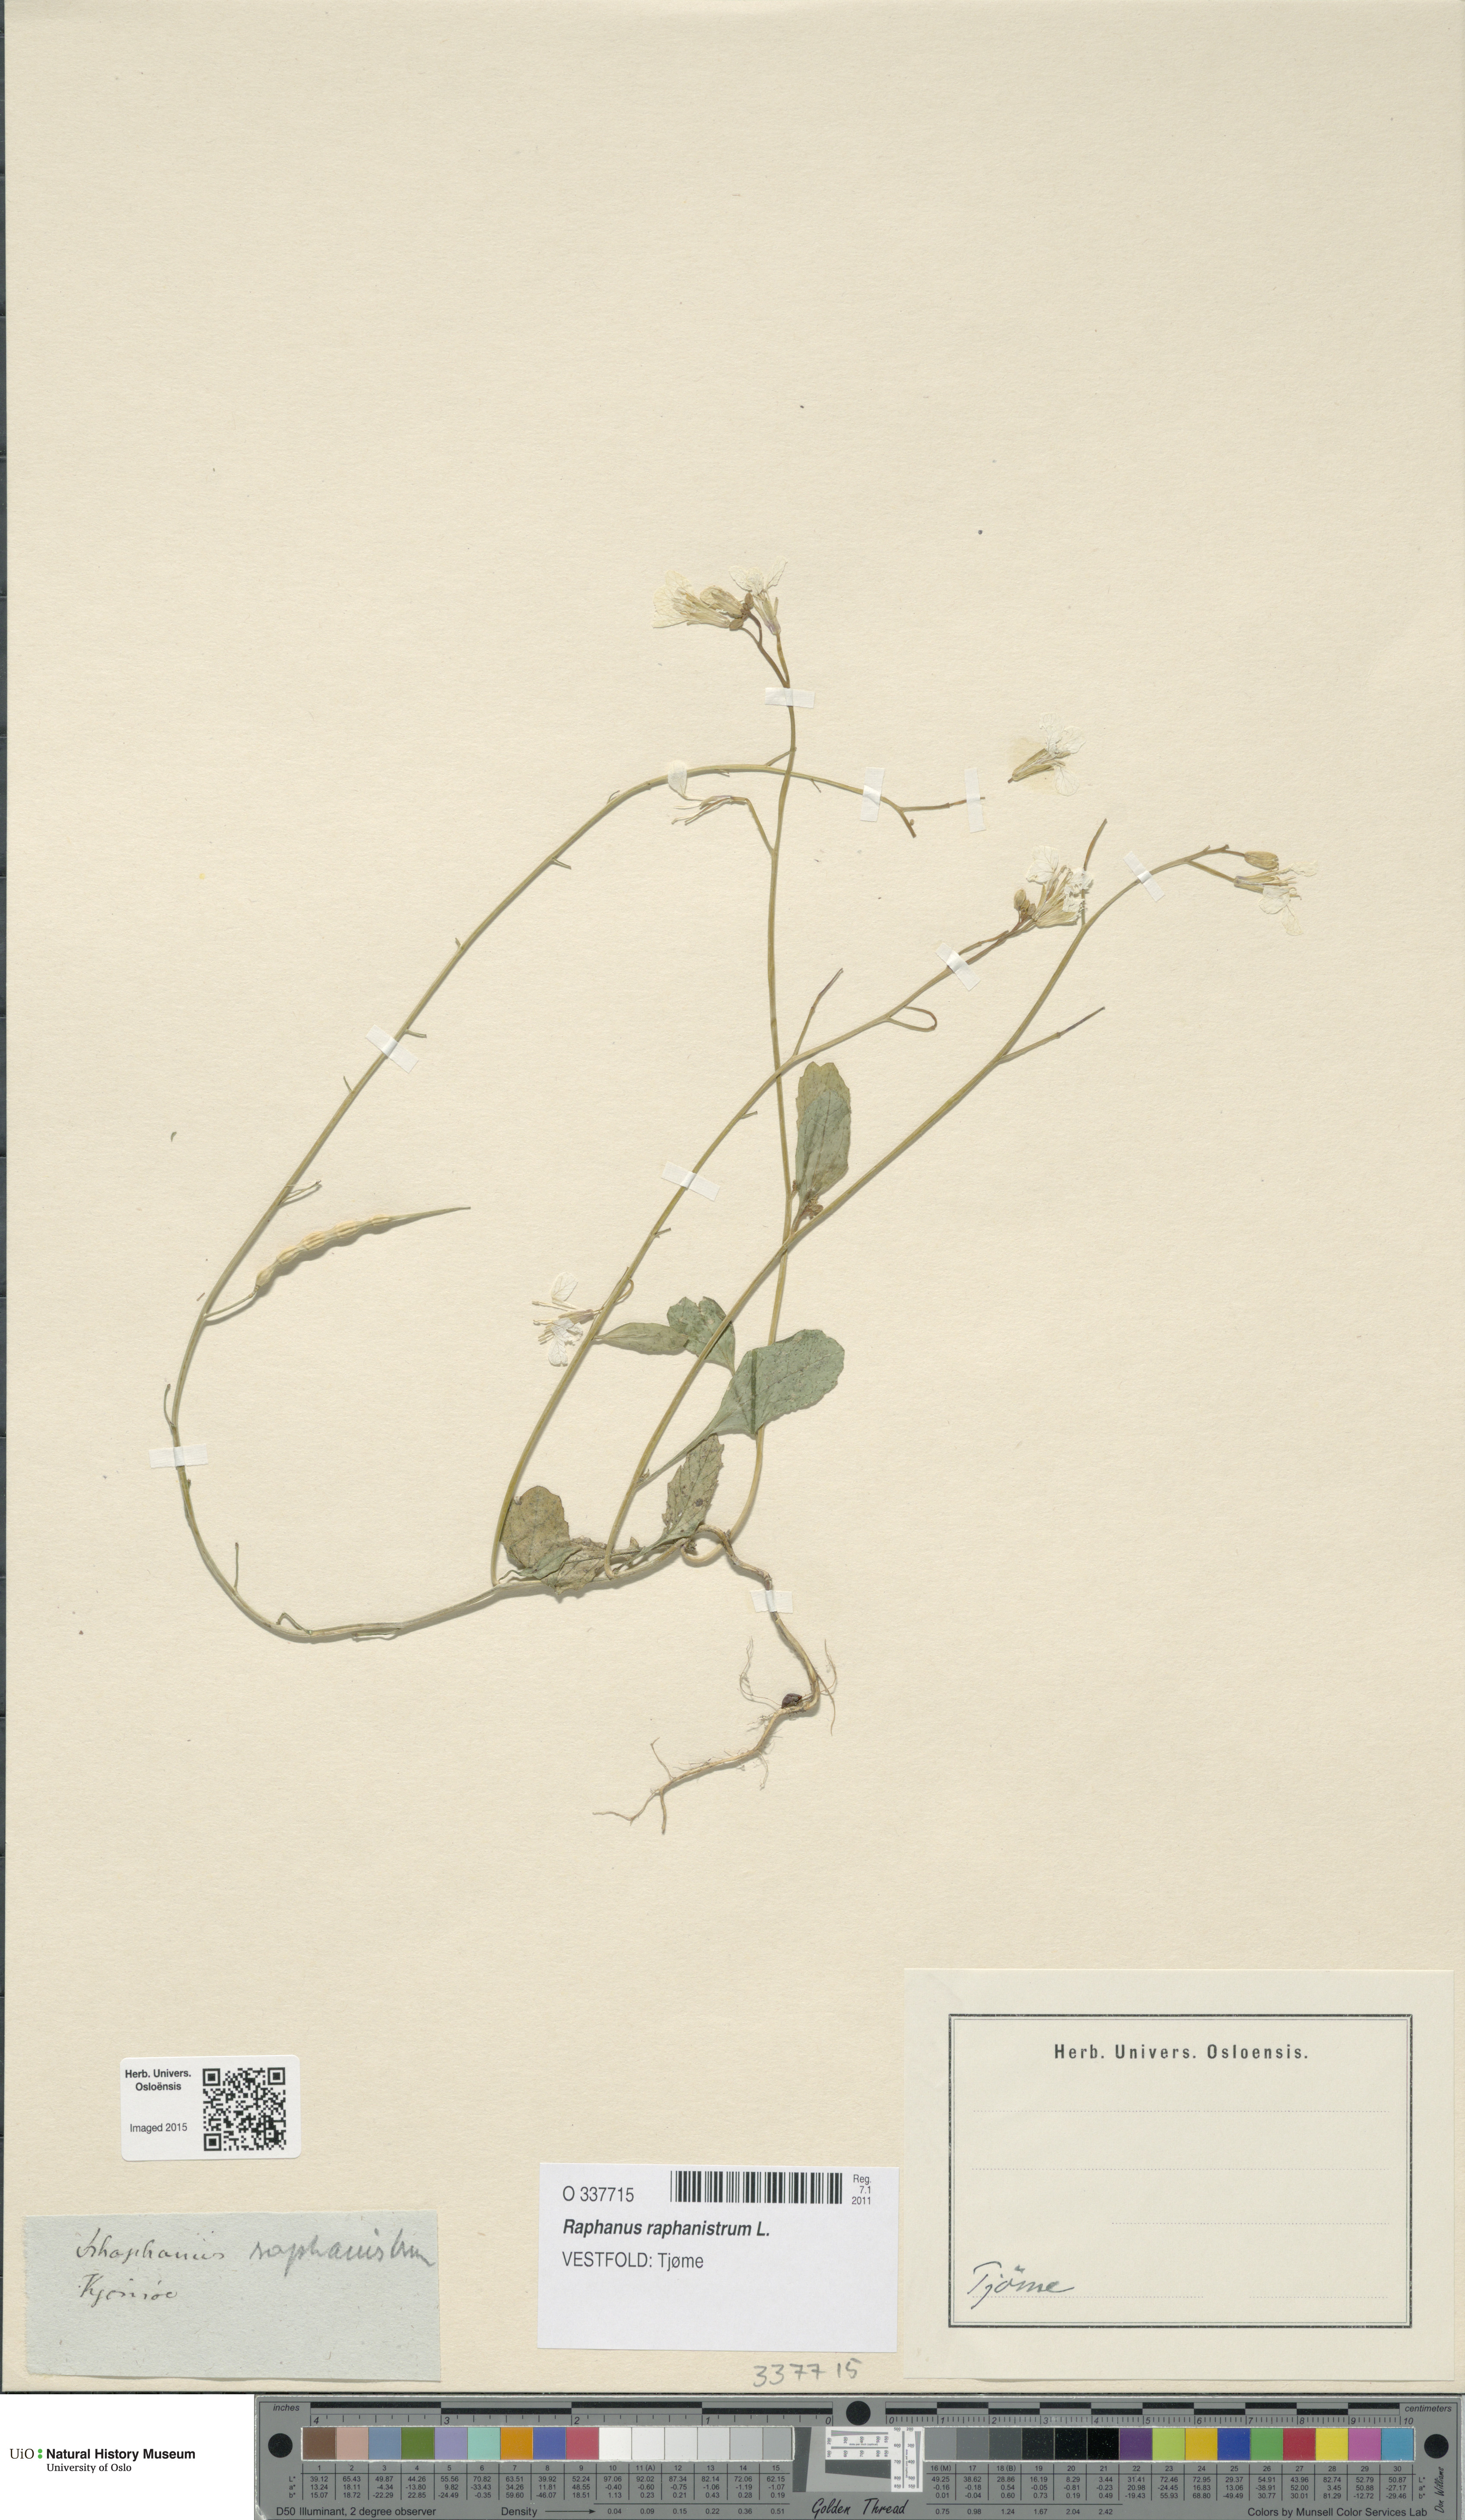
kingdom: Plantae
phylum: Tracheophyta
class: Magnoliopsida
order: Brassicales
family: Brassicaceae
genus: Raphanus
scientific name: Raphanus raphanistrum
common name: Wild radish
